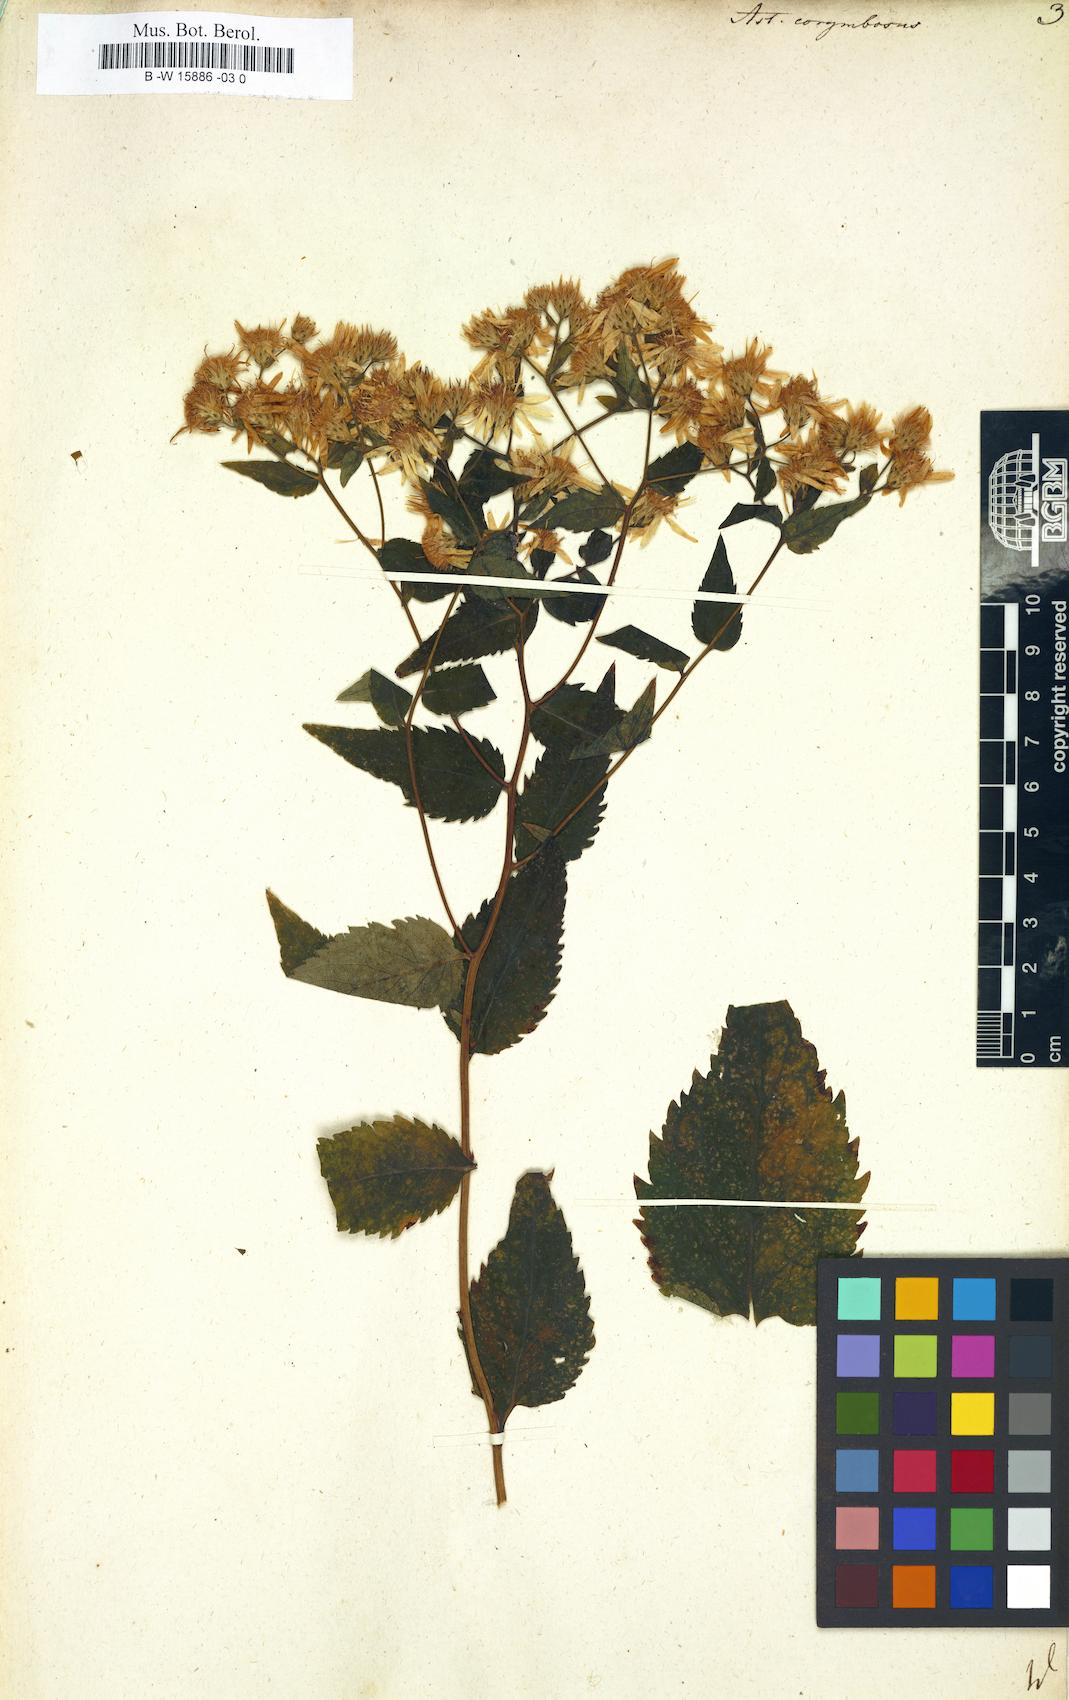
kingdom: Plantae
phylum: Tracheophyta
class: Magnoliopsida
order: Asterales
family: Asteraceae
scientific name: Asteraceae
